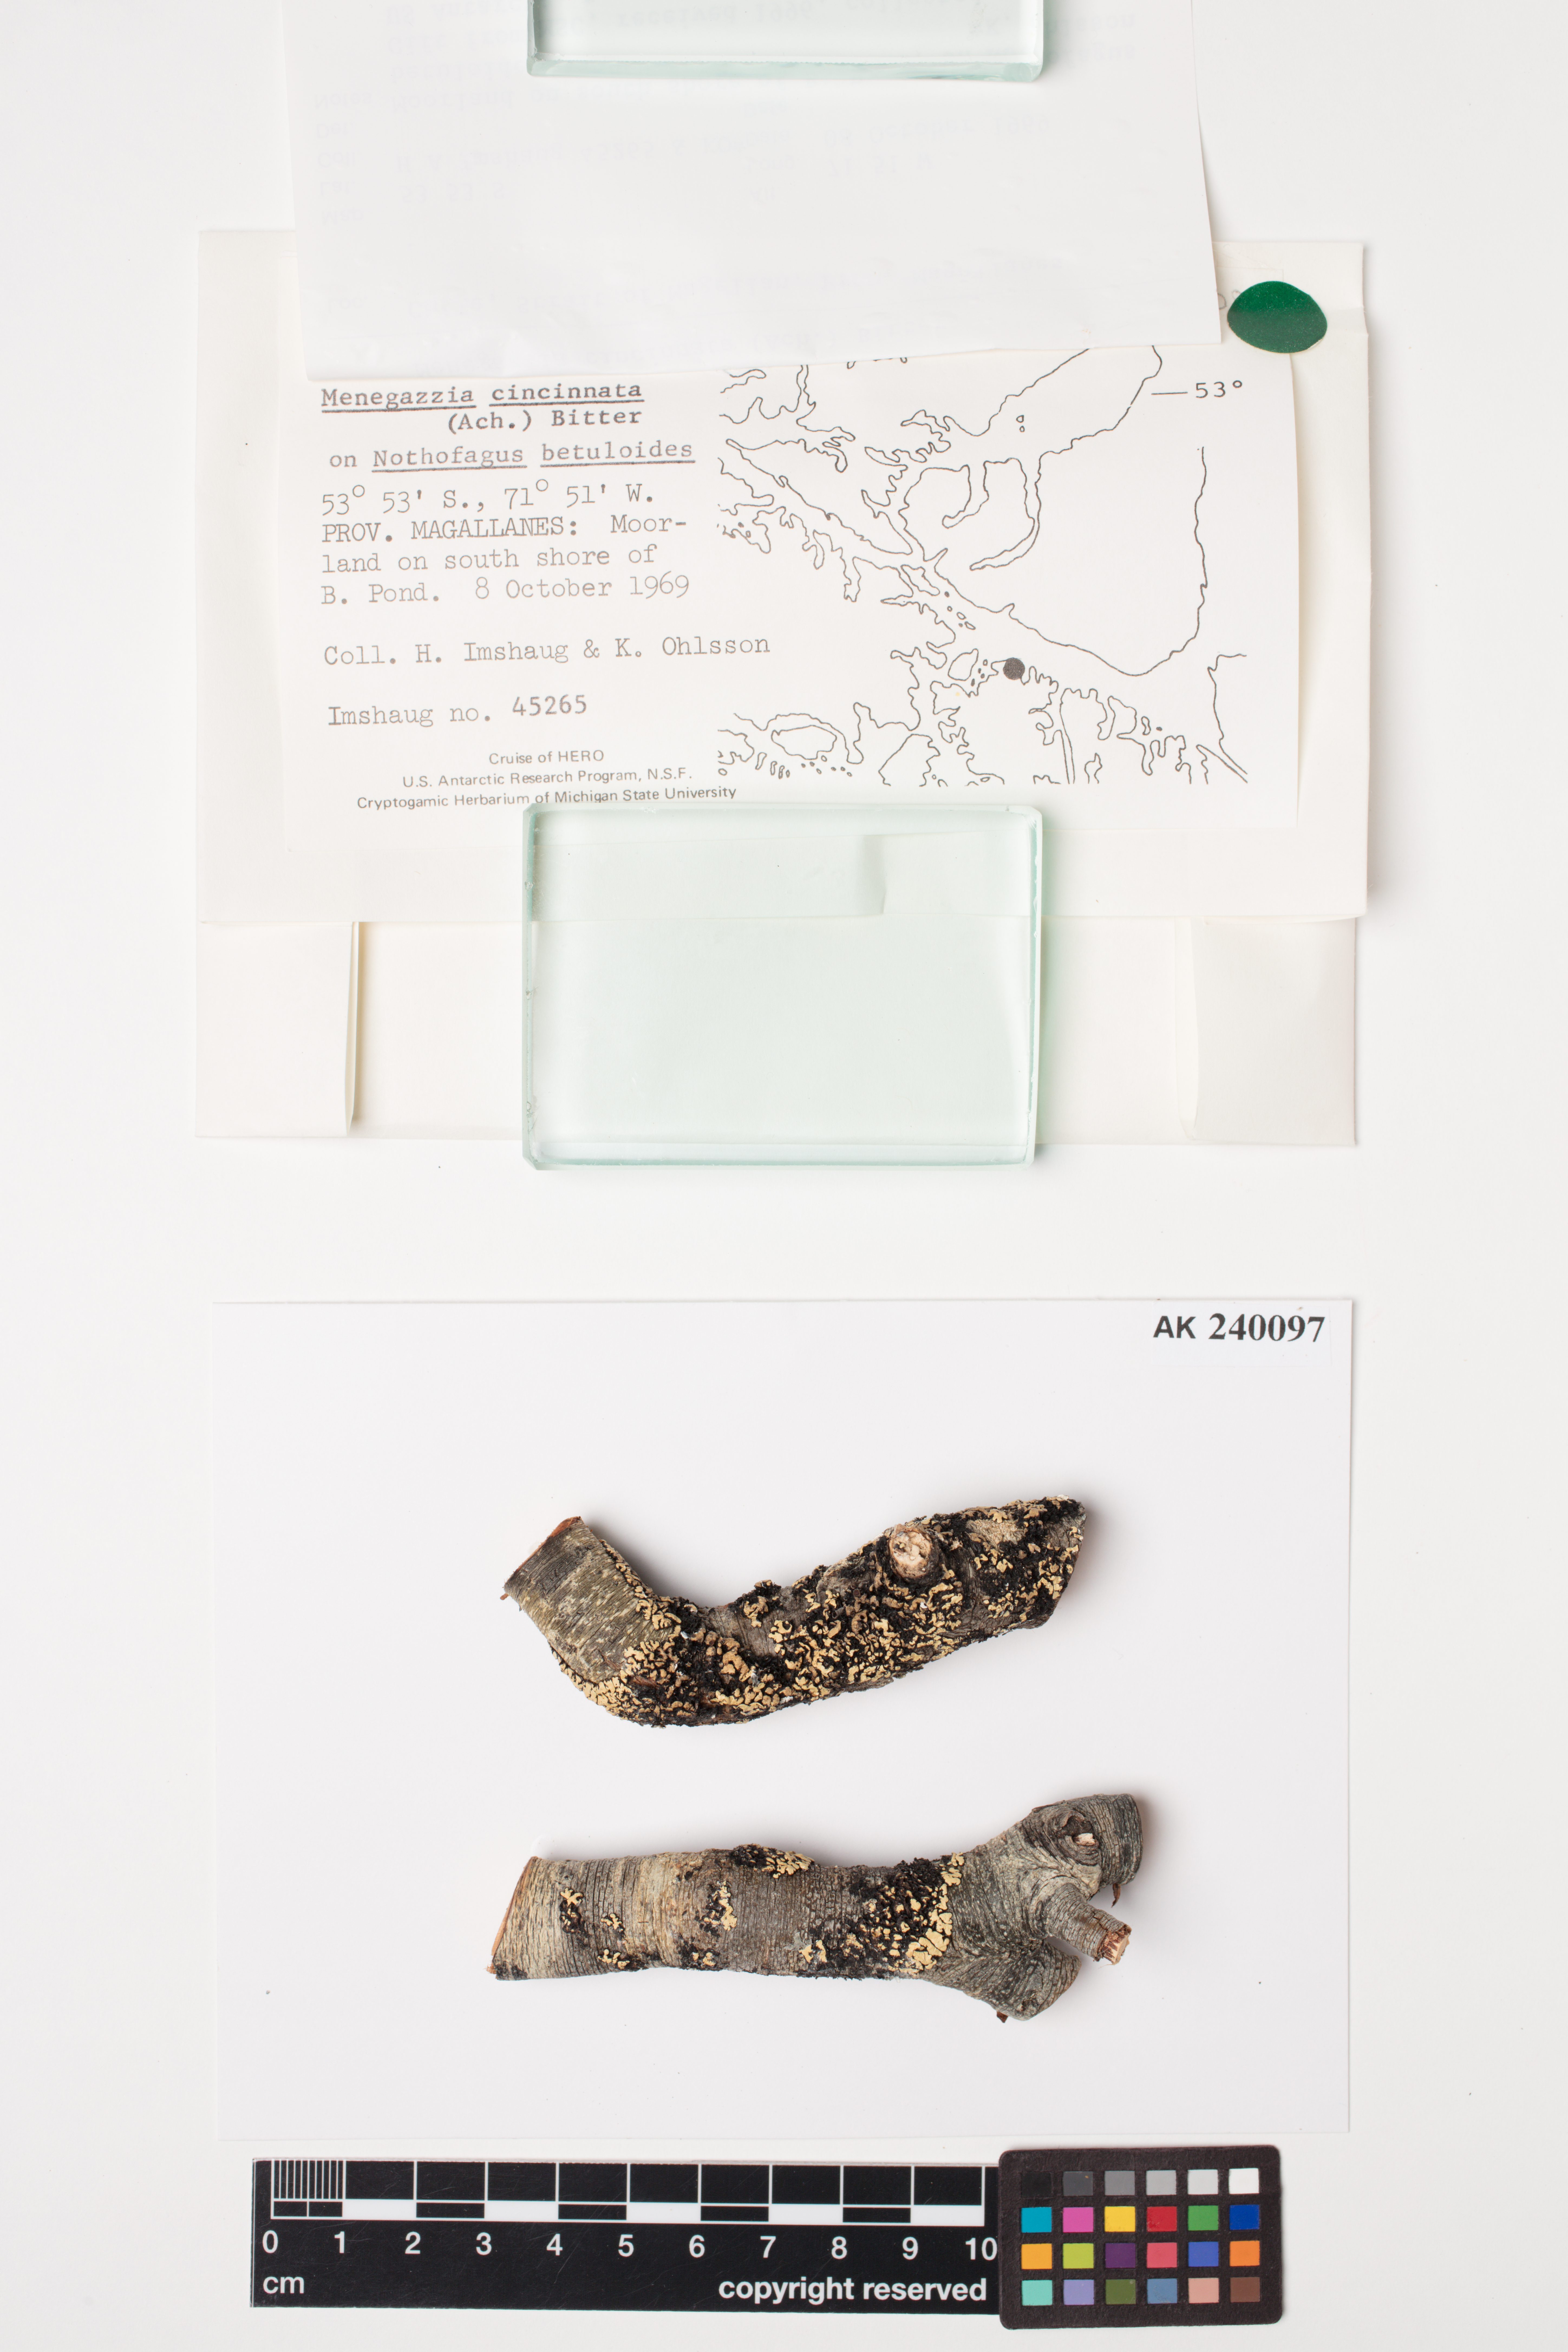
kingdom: Fungi
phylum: Ascomycota
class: Lecanoromycetes
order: Lecanorales
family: Parmeliaceae
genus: Menegazzia
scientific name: Menegazzia cincinnata
